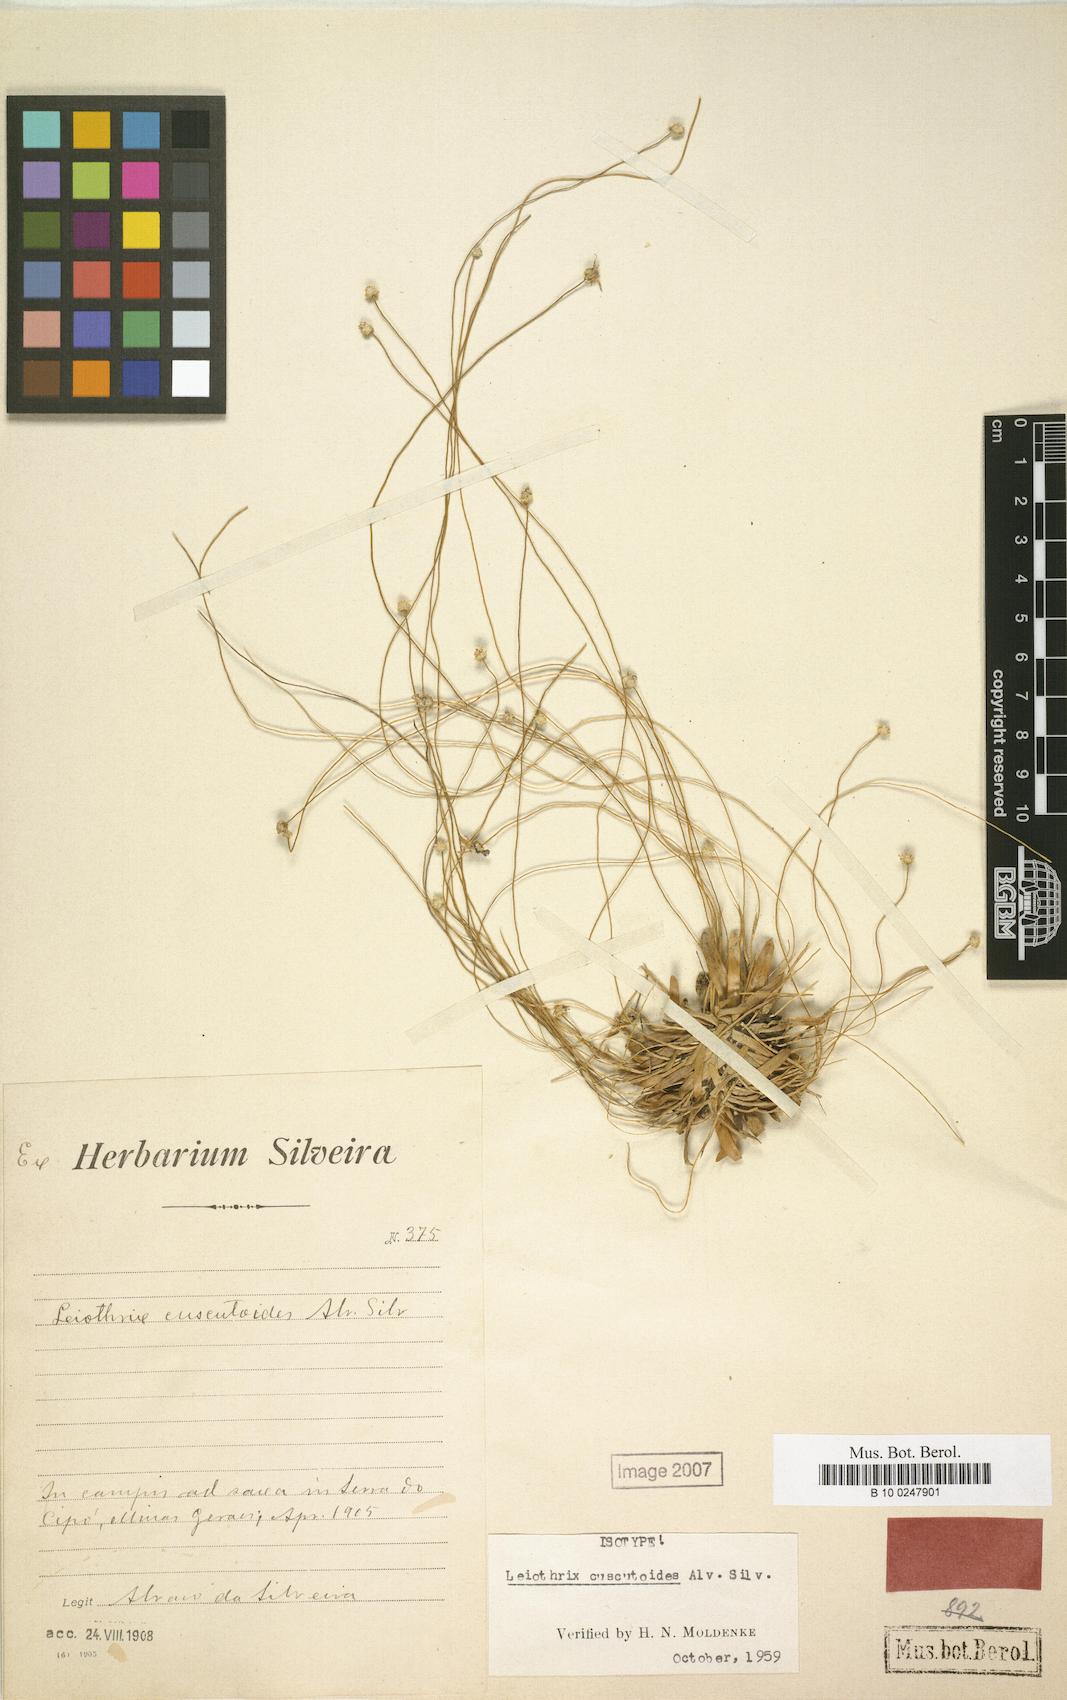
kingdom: Plantae
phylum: Tracheophyta
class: Liliopsida
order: Poales
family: Eriocaulaceae
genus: Leiothrix
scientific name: Leiothrix spiralis
